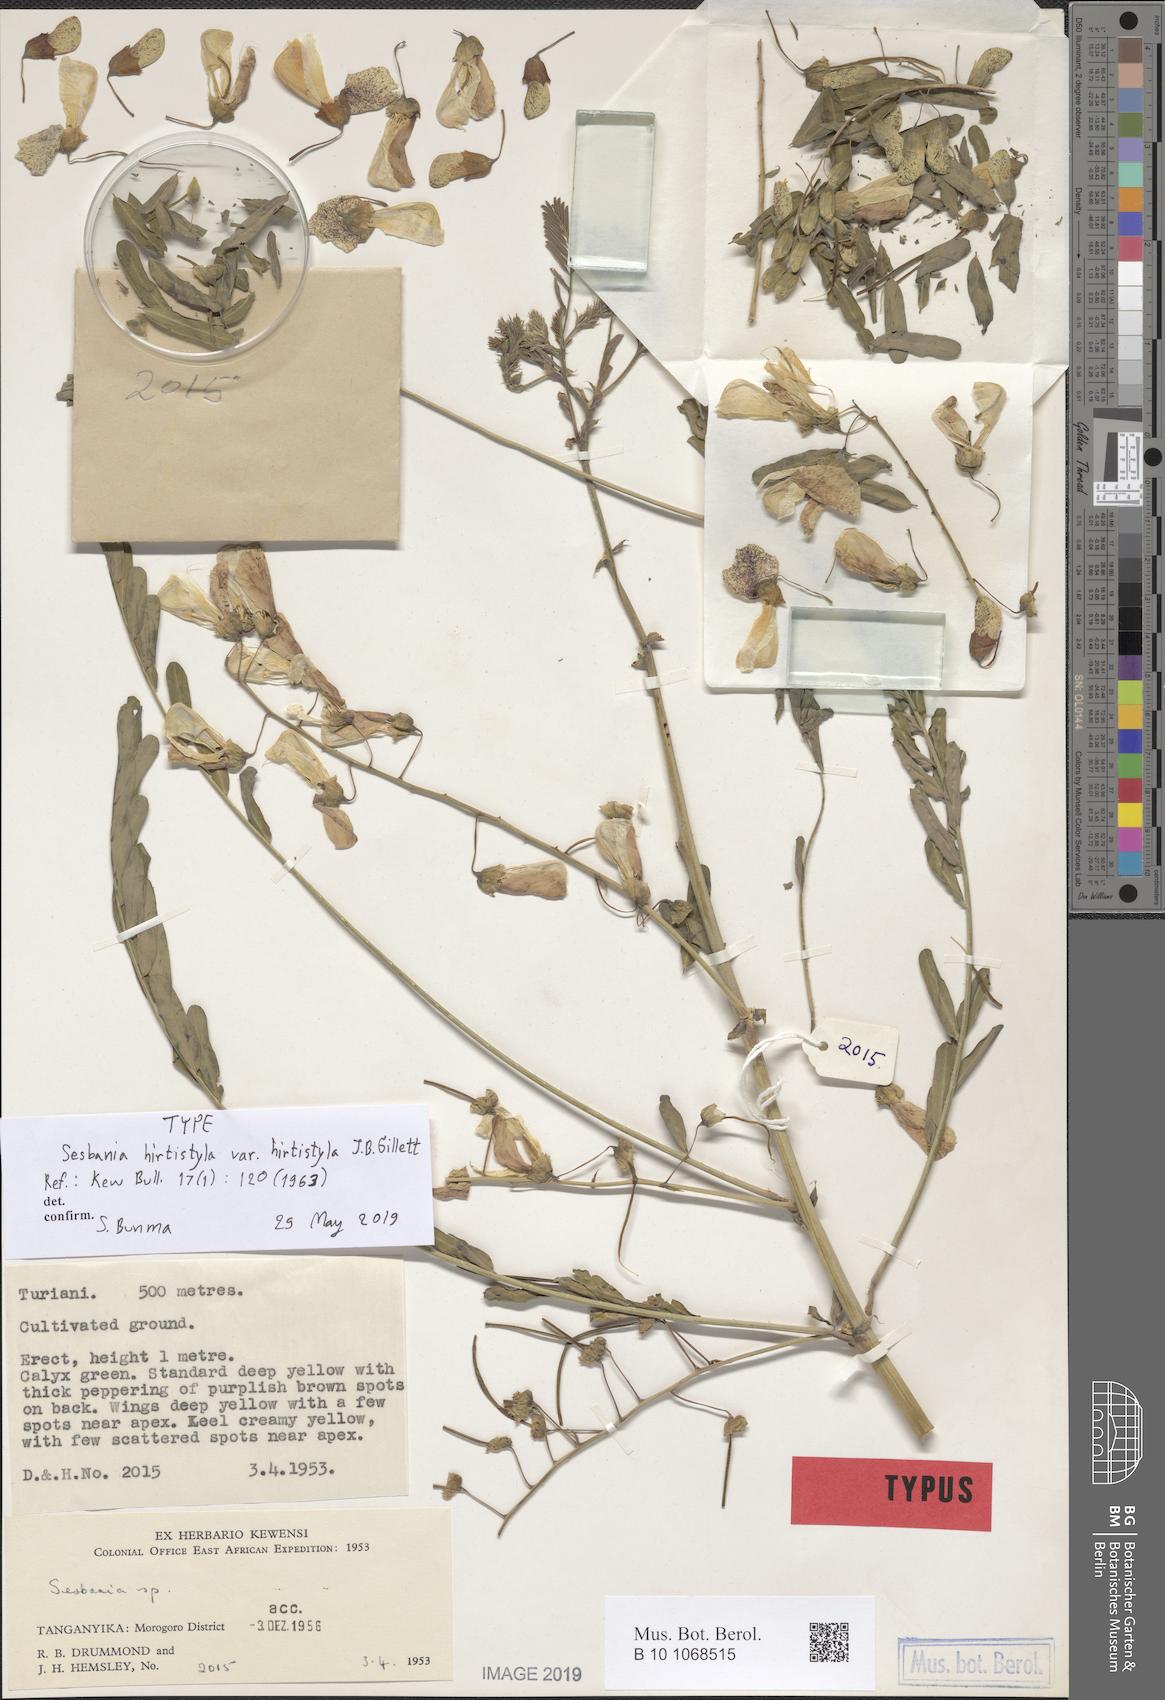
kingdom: Plantae
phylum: Tracheophyta
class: Magnoliopsida
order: Fabales
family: Fabaceae
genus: Sesbania
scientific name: Sesbania hirtistyla
